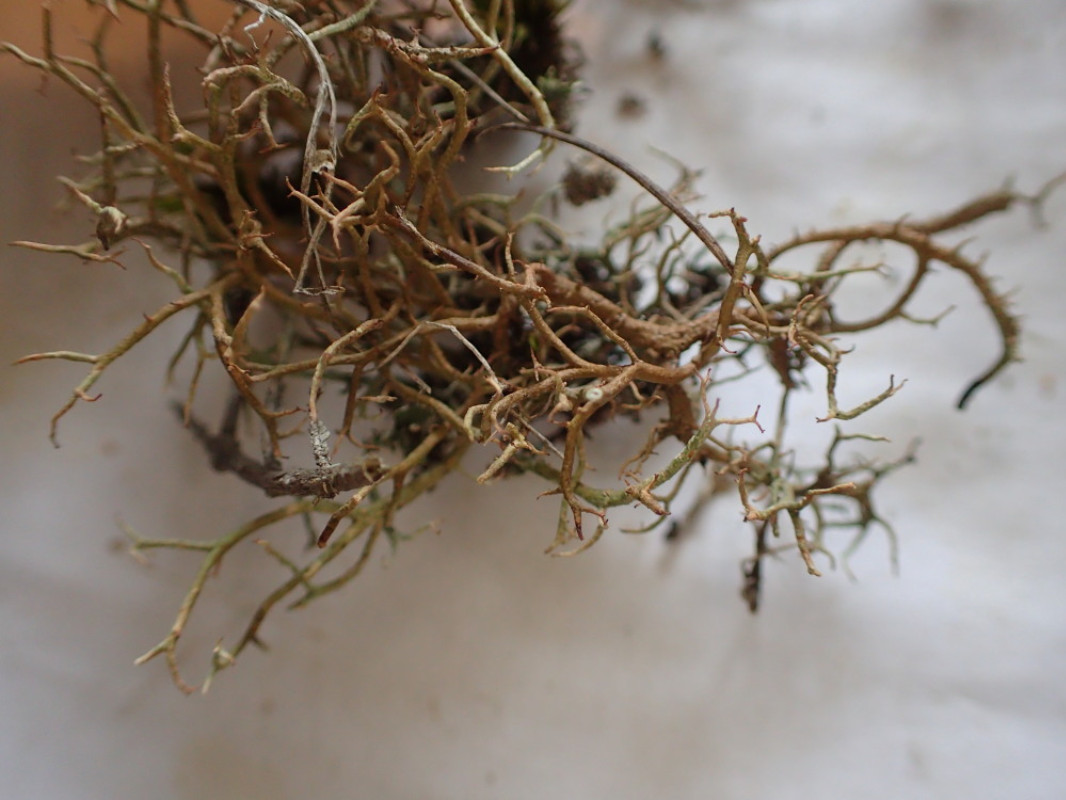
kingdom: Fungi
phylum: Ascomycota
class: Lecanoromycetes
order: Lecanorales
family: Cladoniaceae
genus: Cladonia
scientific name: Cladonia furcata
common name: kløftet bægerlav
